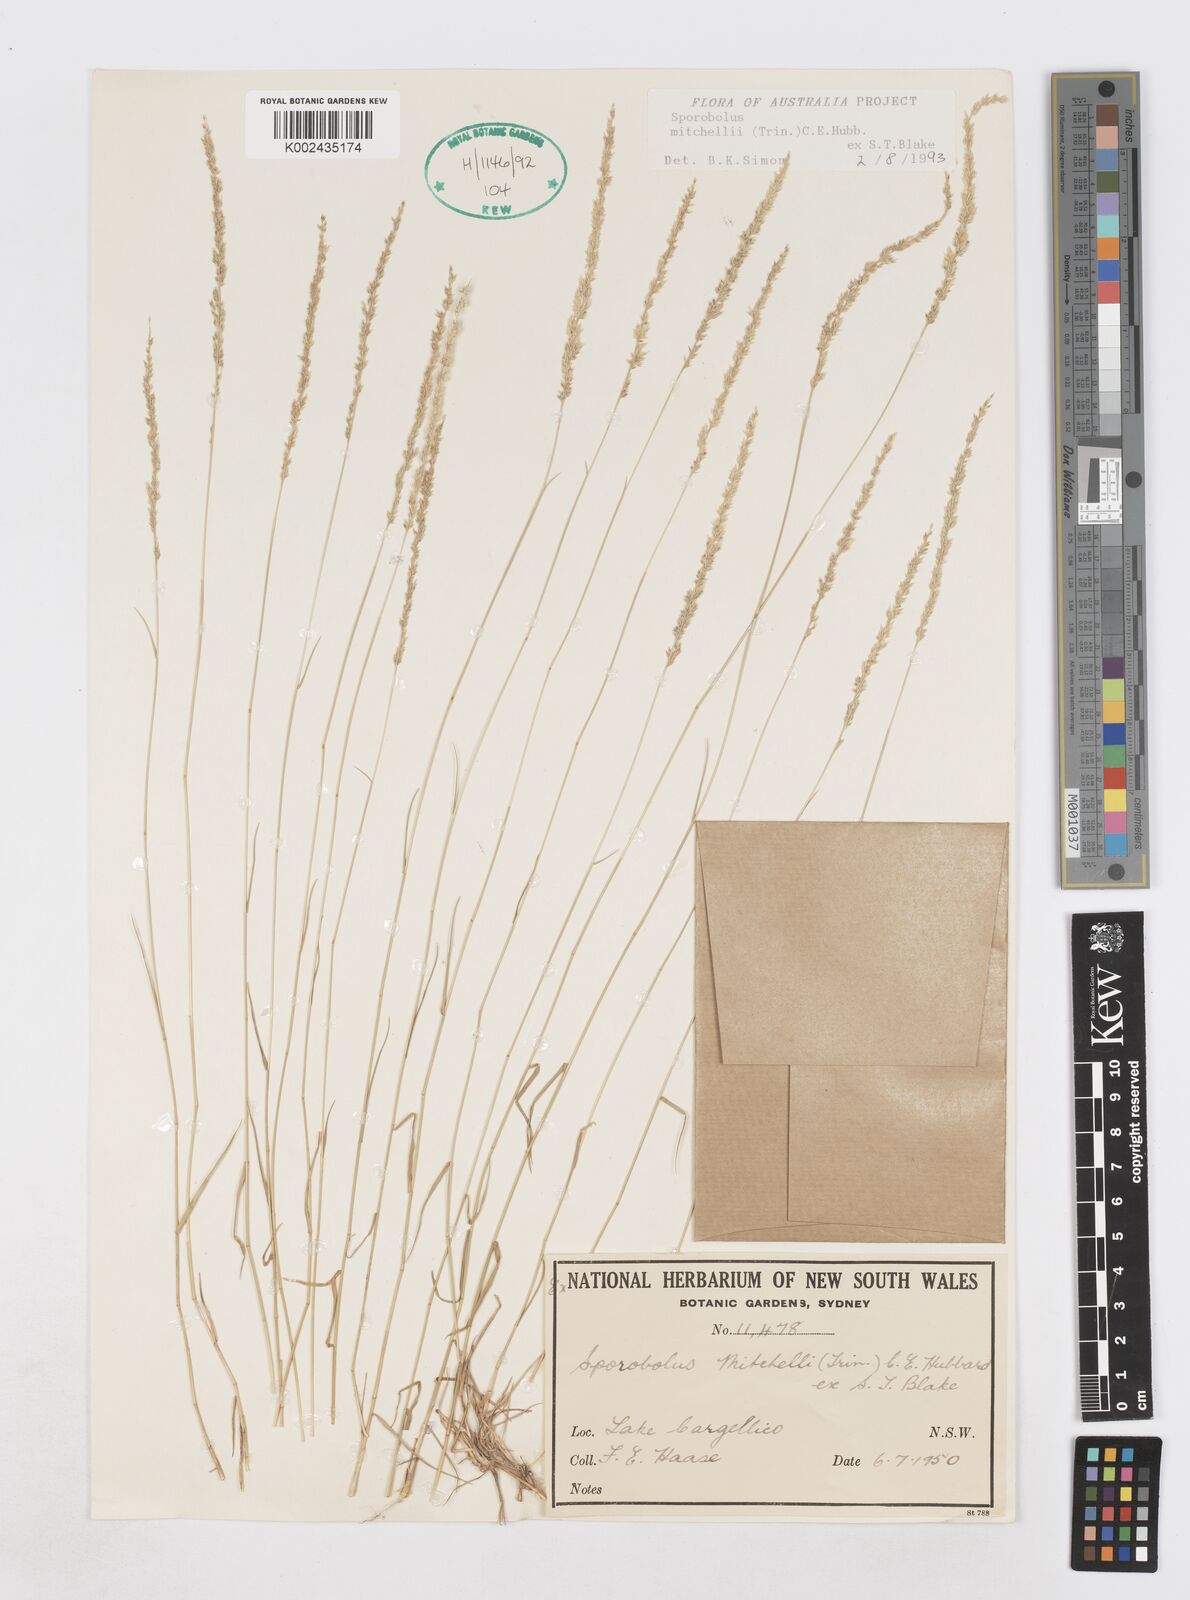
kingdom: Plantae
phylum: Tracheophyta
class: Liliopsida
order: Poales
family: Poaceae
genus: Sporobolus
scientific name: Sporobolus mitchellii
